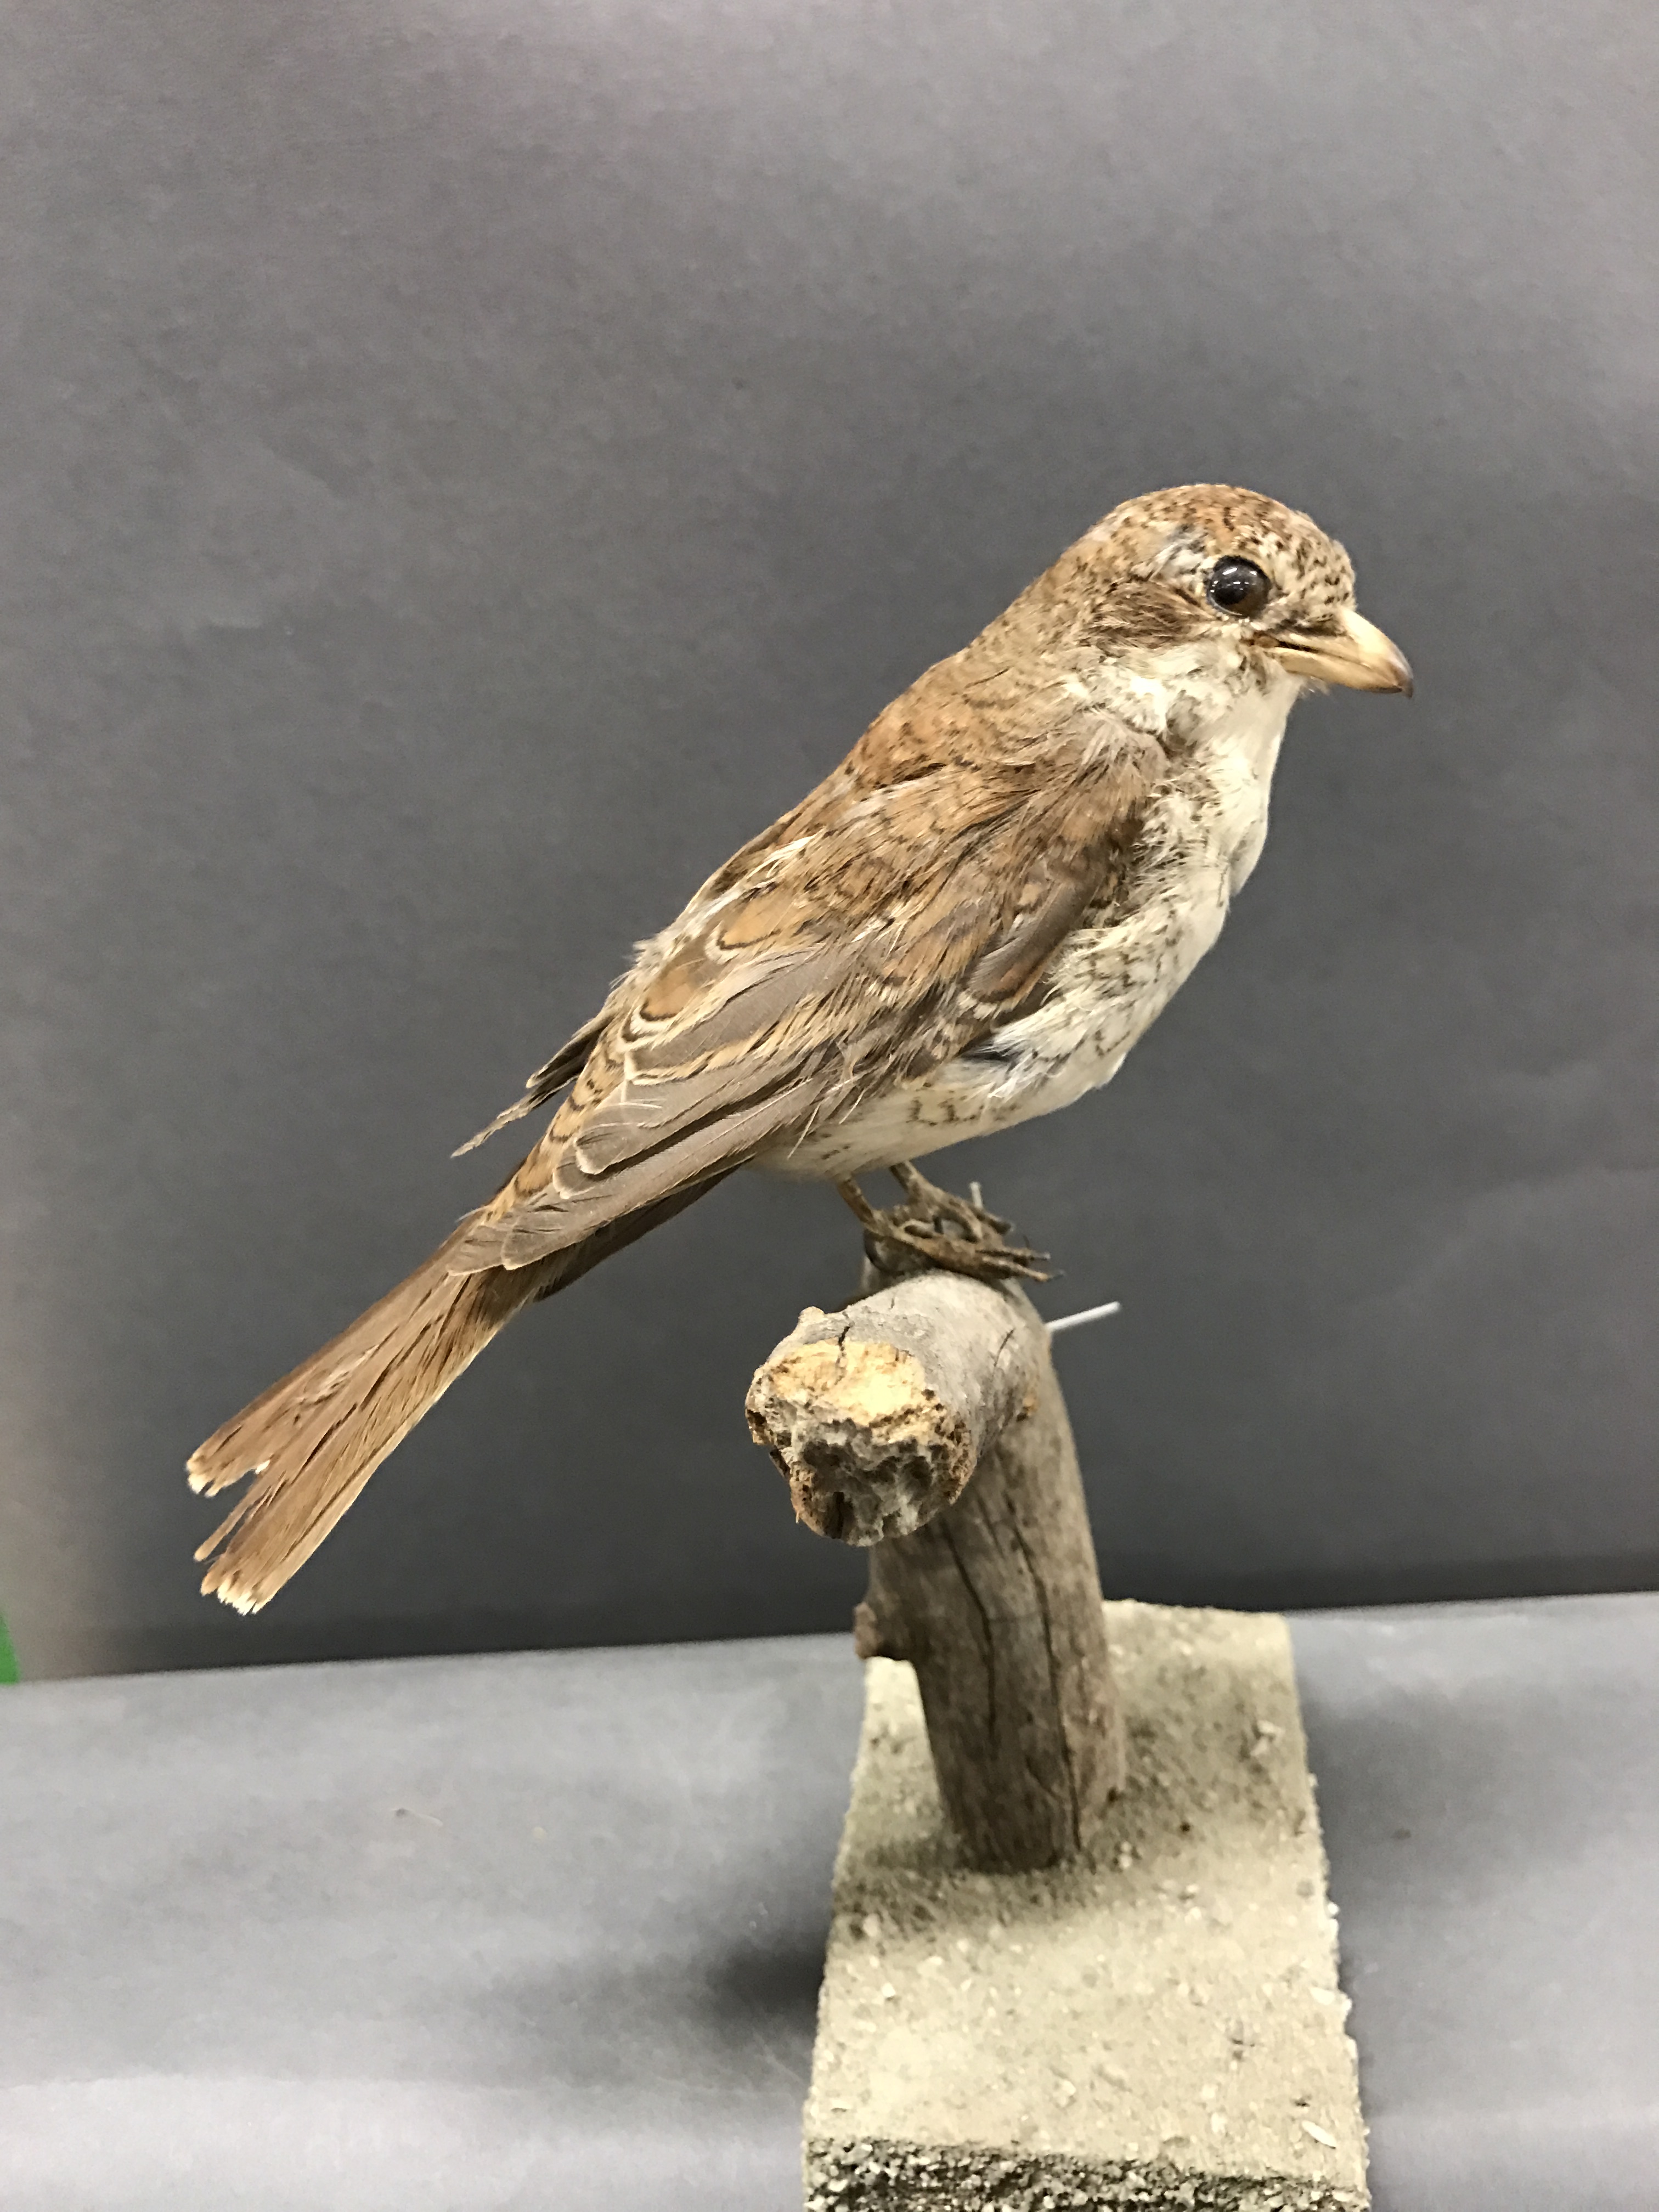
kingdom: Animalia
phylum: Chordata
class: Aves
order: Passeriformes
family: Laniidae
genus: Lanius
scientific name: Lanius collurio
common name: Red-backed shrike
